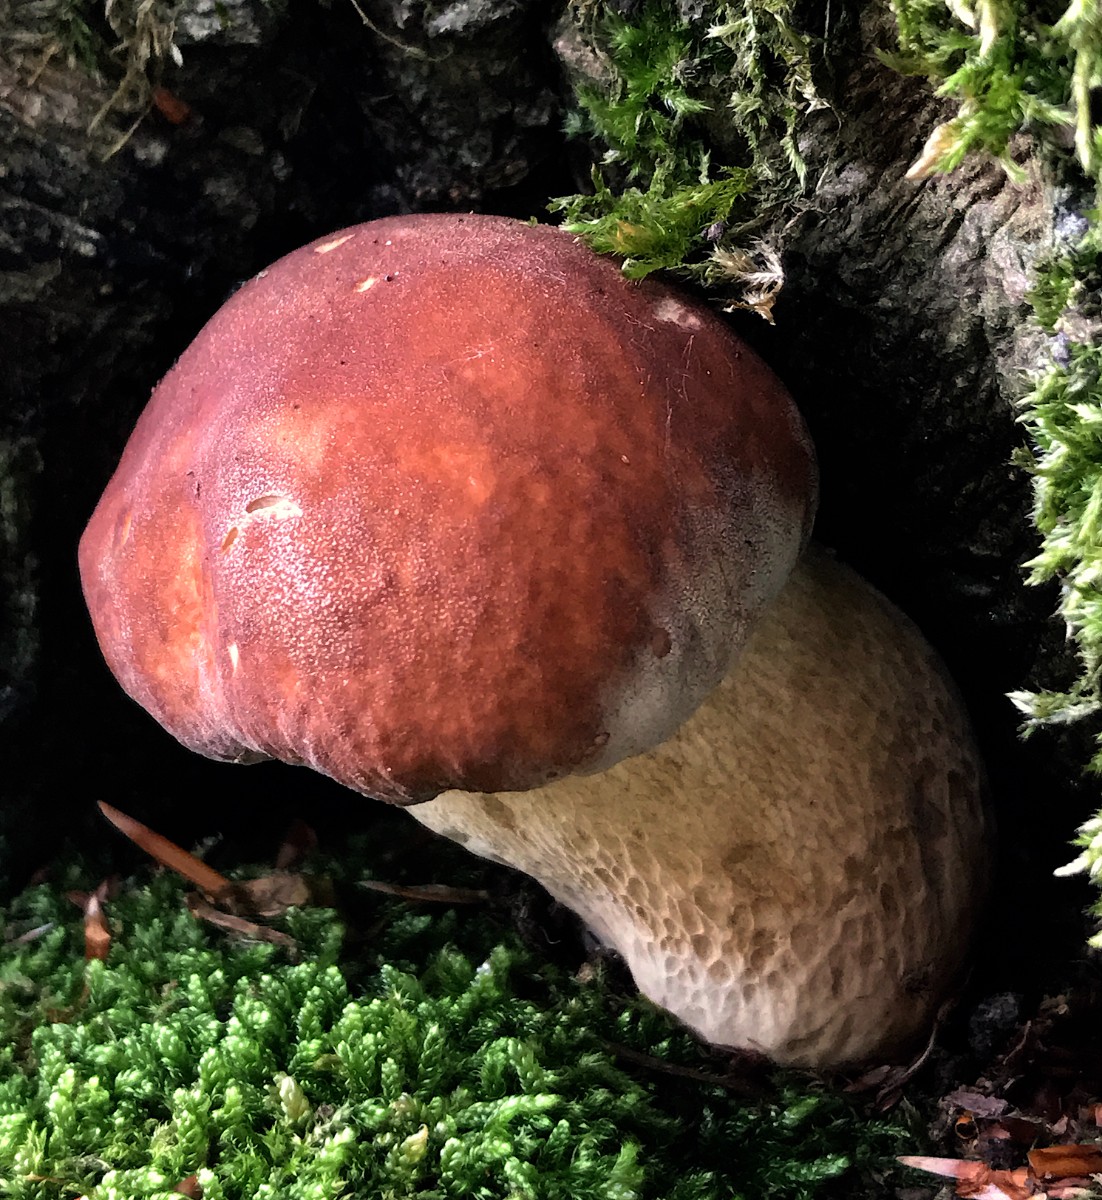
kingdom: Fungi
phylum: Basidiomycota
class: Agaricomycetes
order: Boletales
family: Boletaceae
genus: Boletus
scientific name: Boletus edulis
